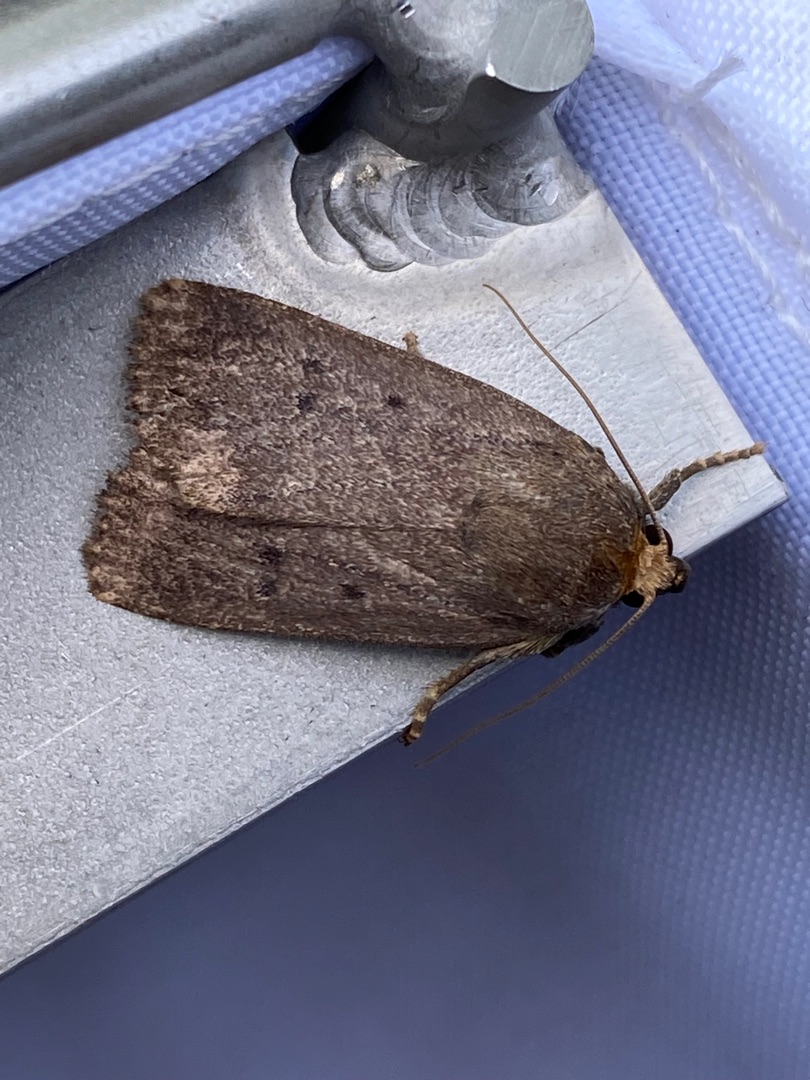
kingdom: Animalia
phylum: Arthropoda
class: Insecta
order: Lepidoptera
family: Noctuidae
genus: Amphipyra
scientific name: Amphipyra tragopoginis
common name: Blyantsugle
